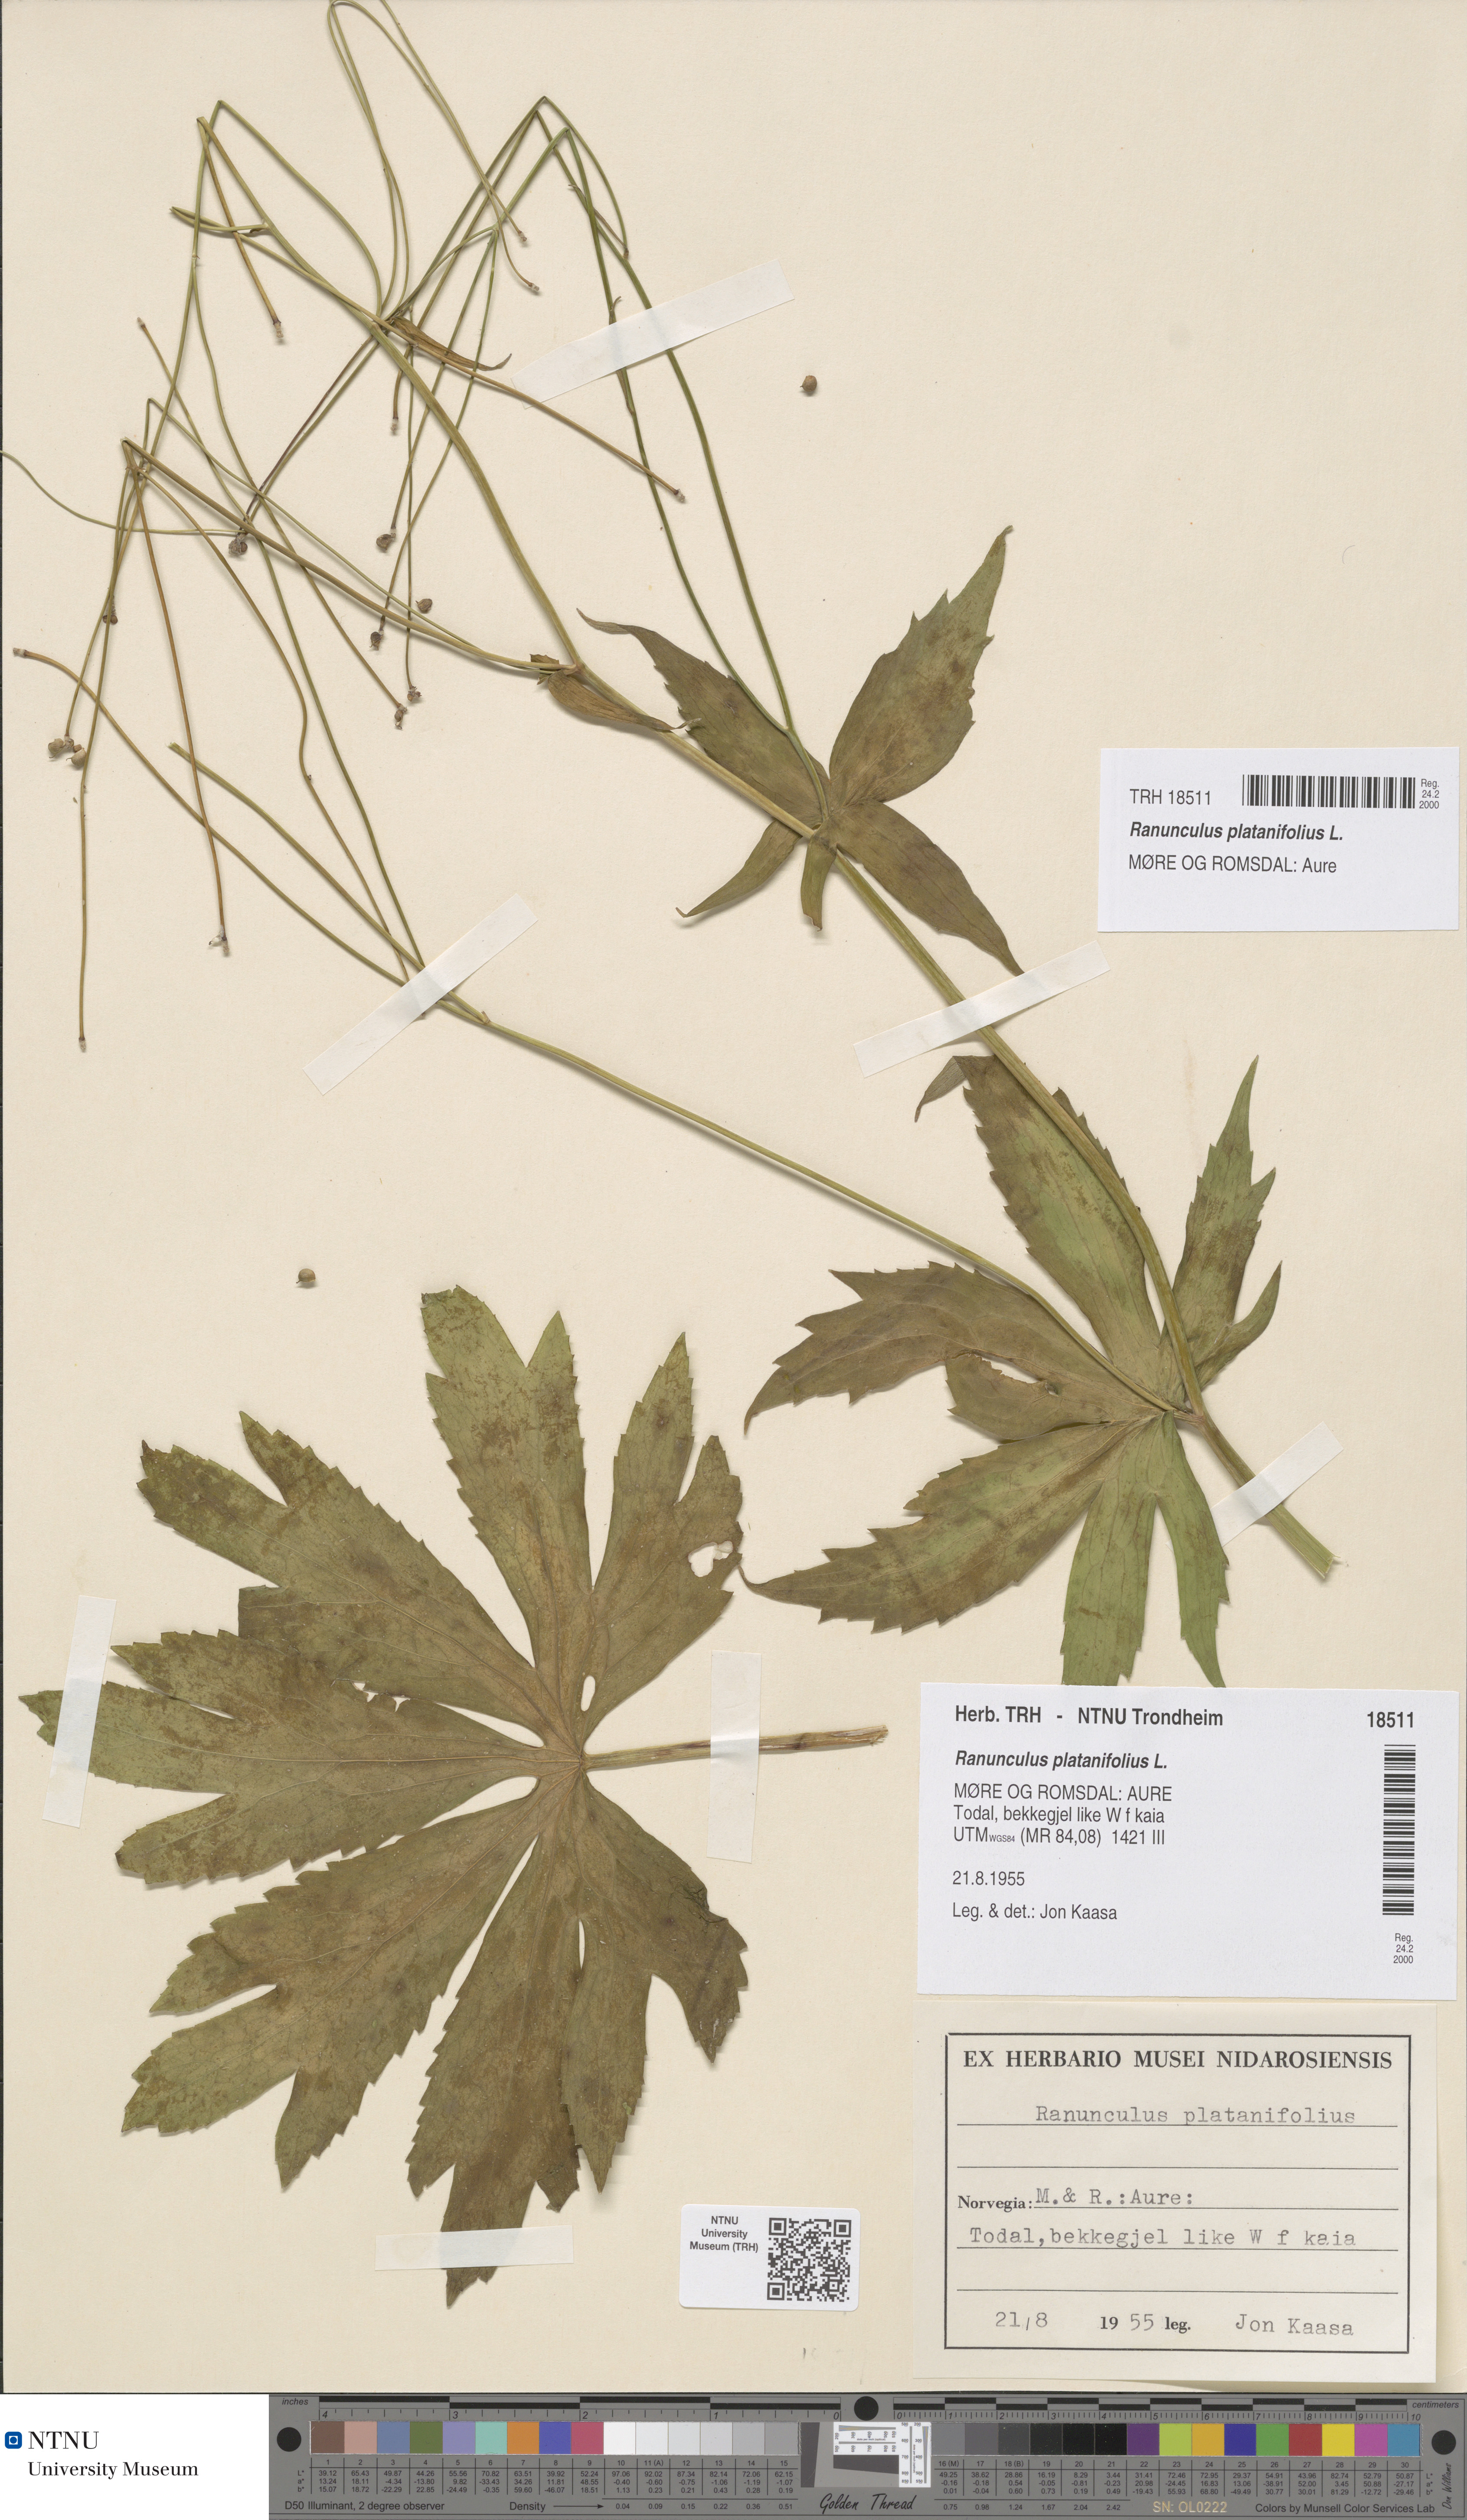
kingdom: Plantae
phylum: Tracheophyta
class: Magnoliopsida
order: Ranunculales
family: Ranunculaceae
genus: Ranunculus
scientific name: Ranunculus platanifolius
